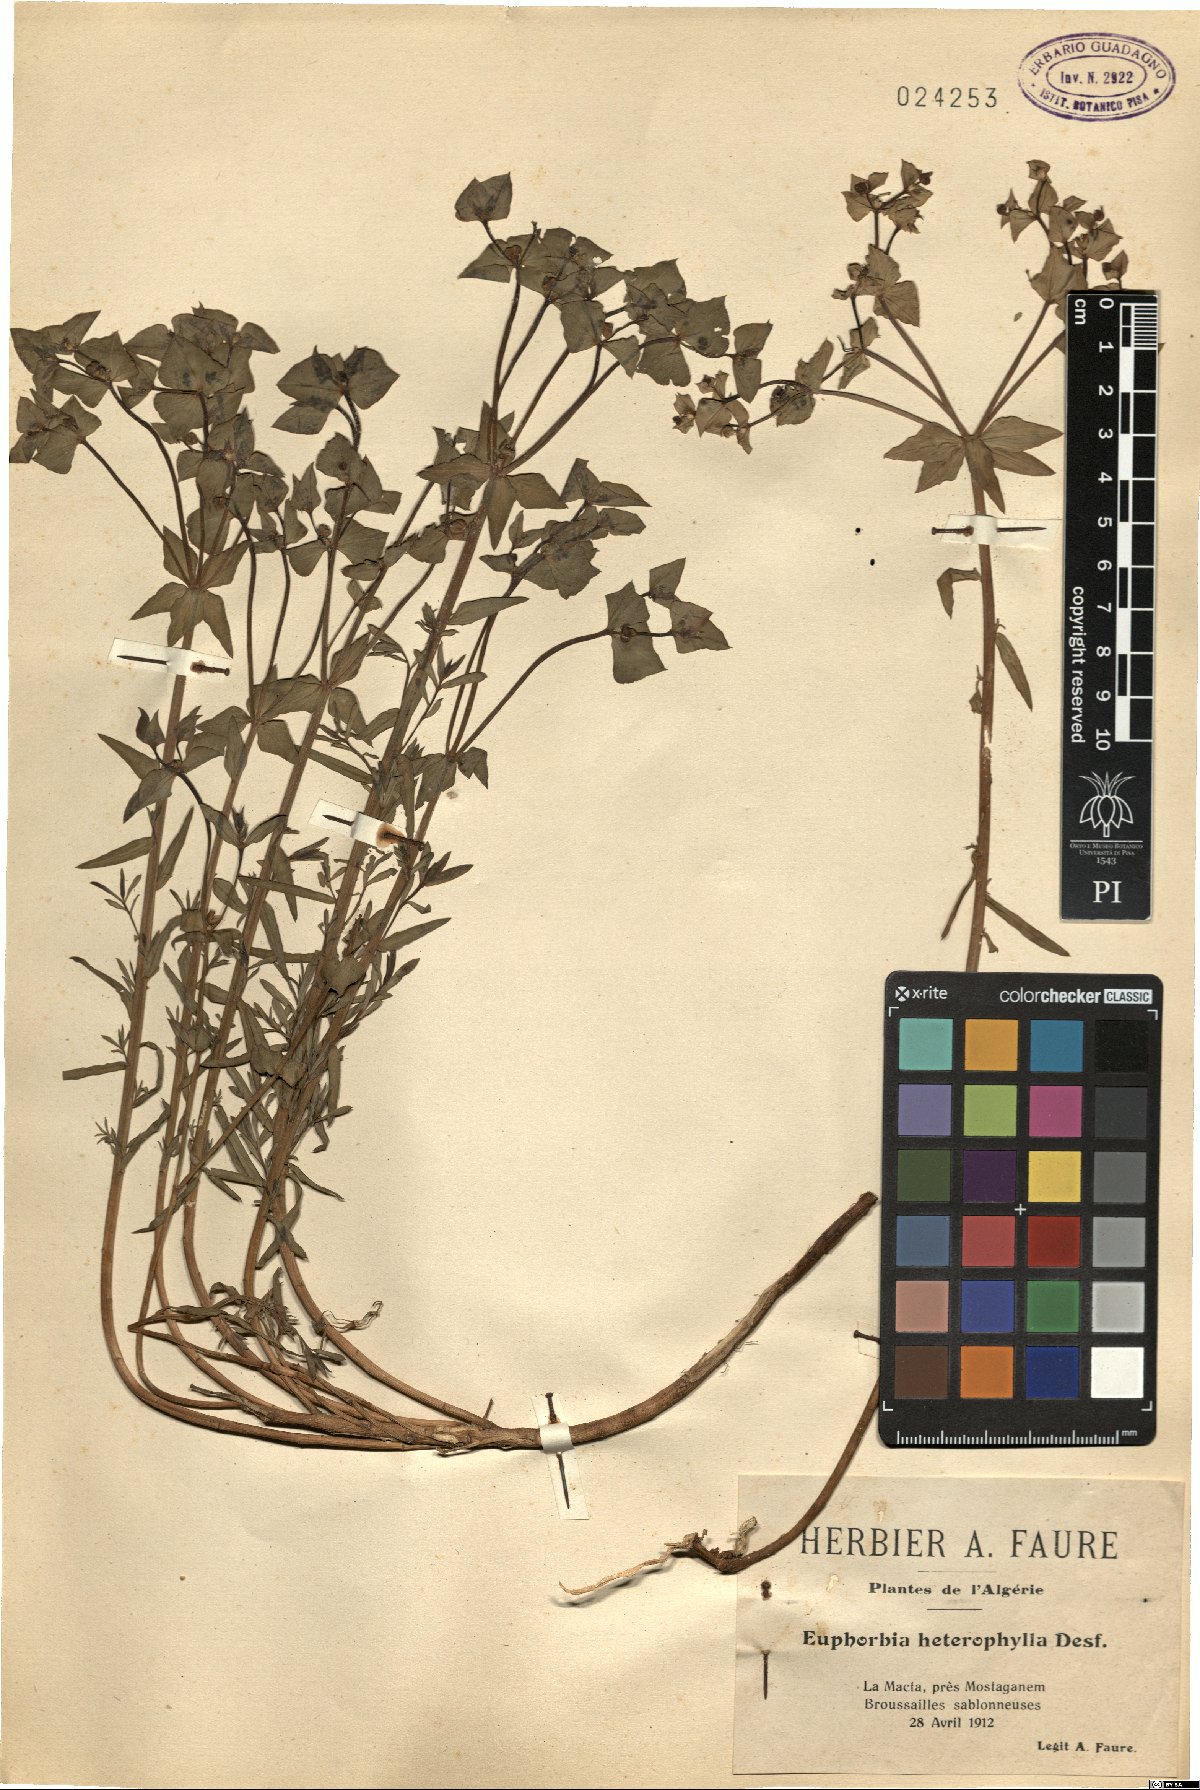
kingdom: Plantae
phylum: Tracheophyta
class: Magnoliopsida
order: Malpighiales
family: Euphorbiaceae
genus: Euphorbia
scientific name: Euphorbia heterophylla
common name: Mexican fireplant
